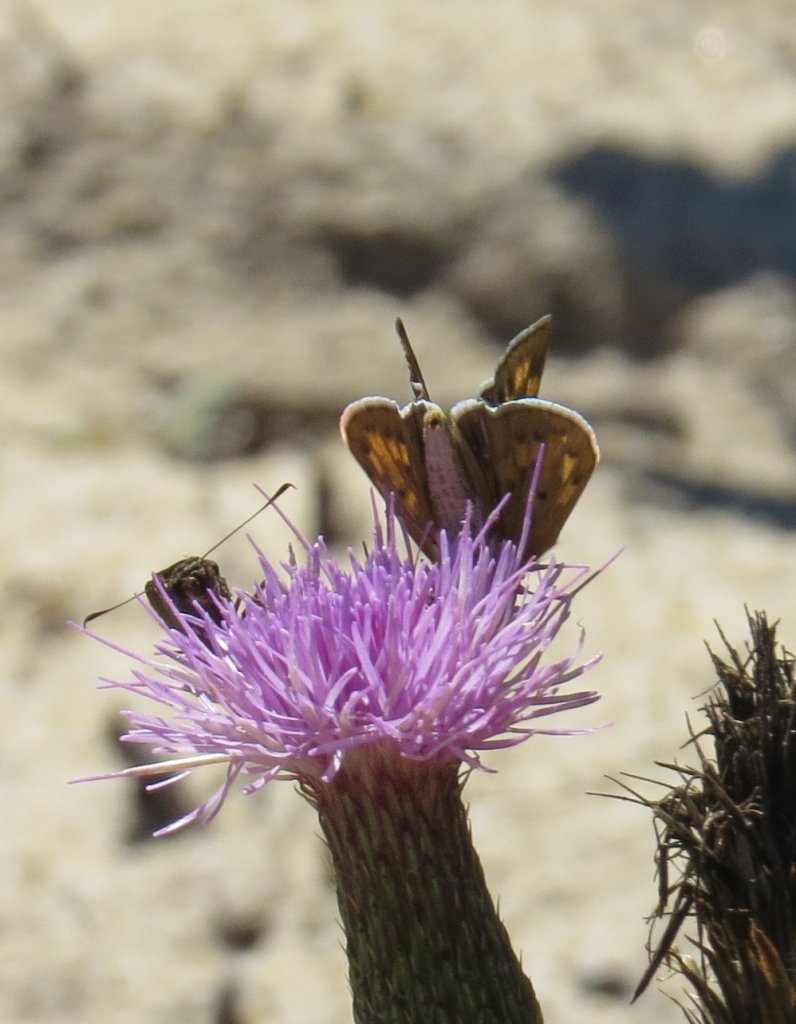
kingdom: Animalia
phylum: Arthropoda
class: Insecta
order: Lepidoptera
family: Hesperiidae
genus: Hylephila
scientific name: Hylephila phyleus
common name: Fiery Skipper
